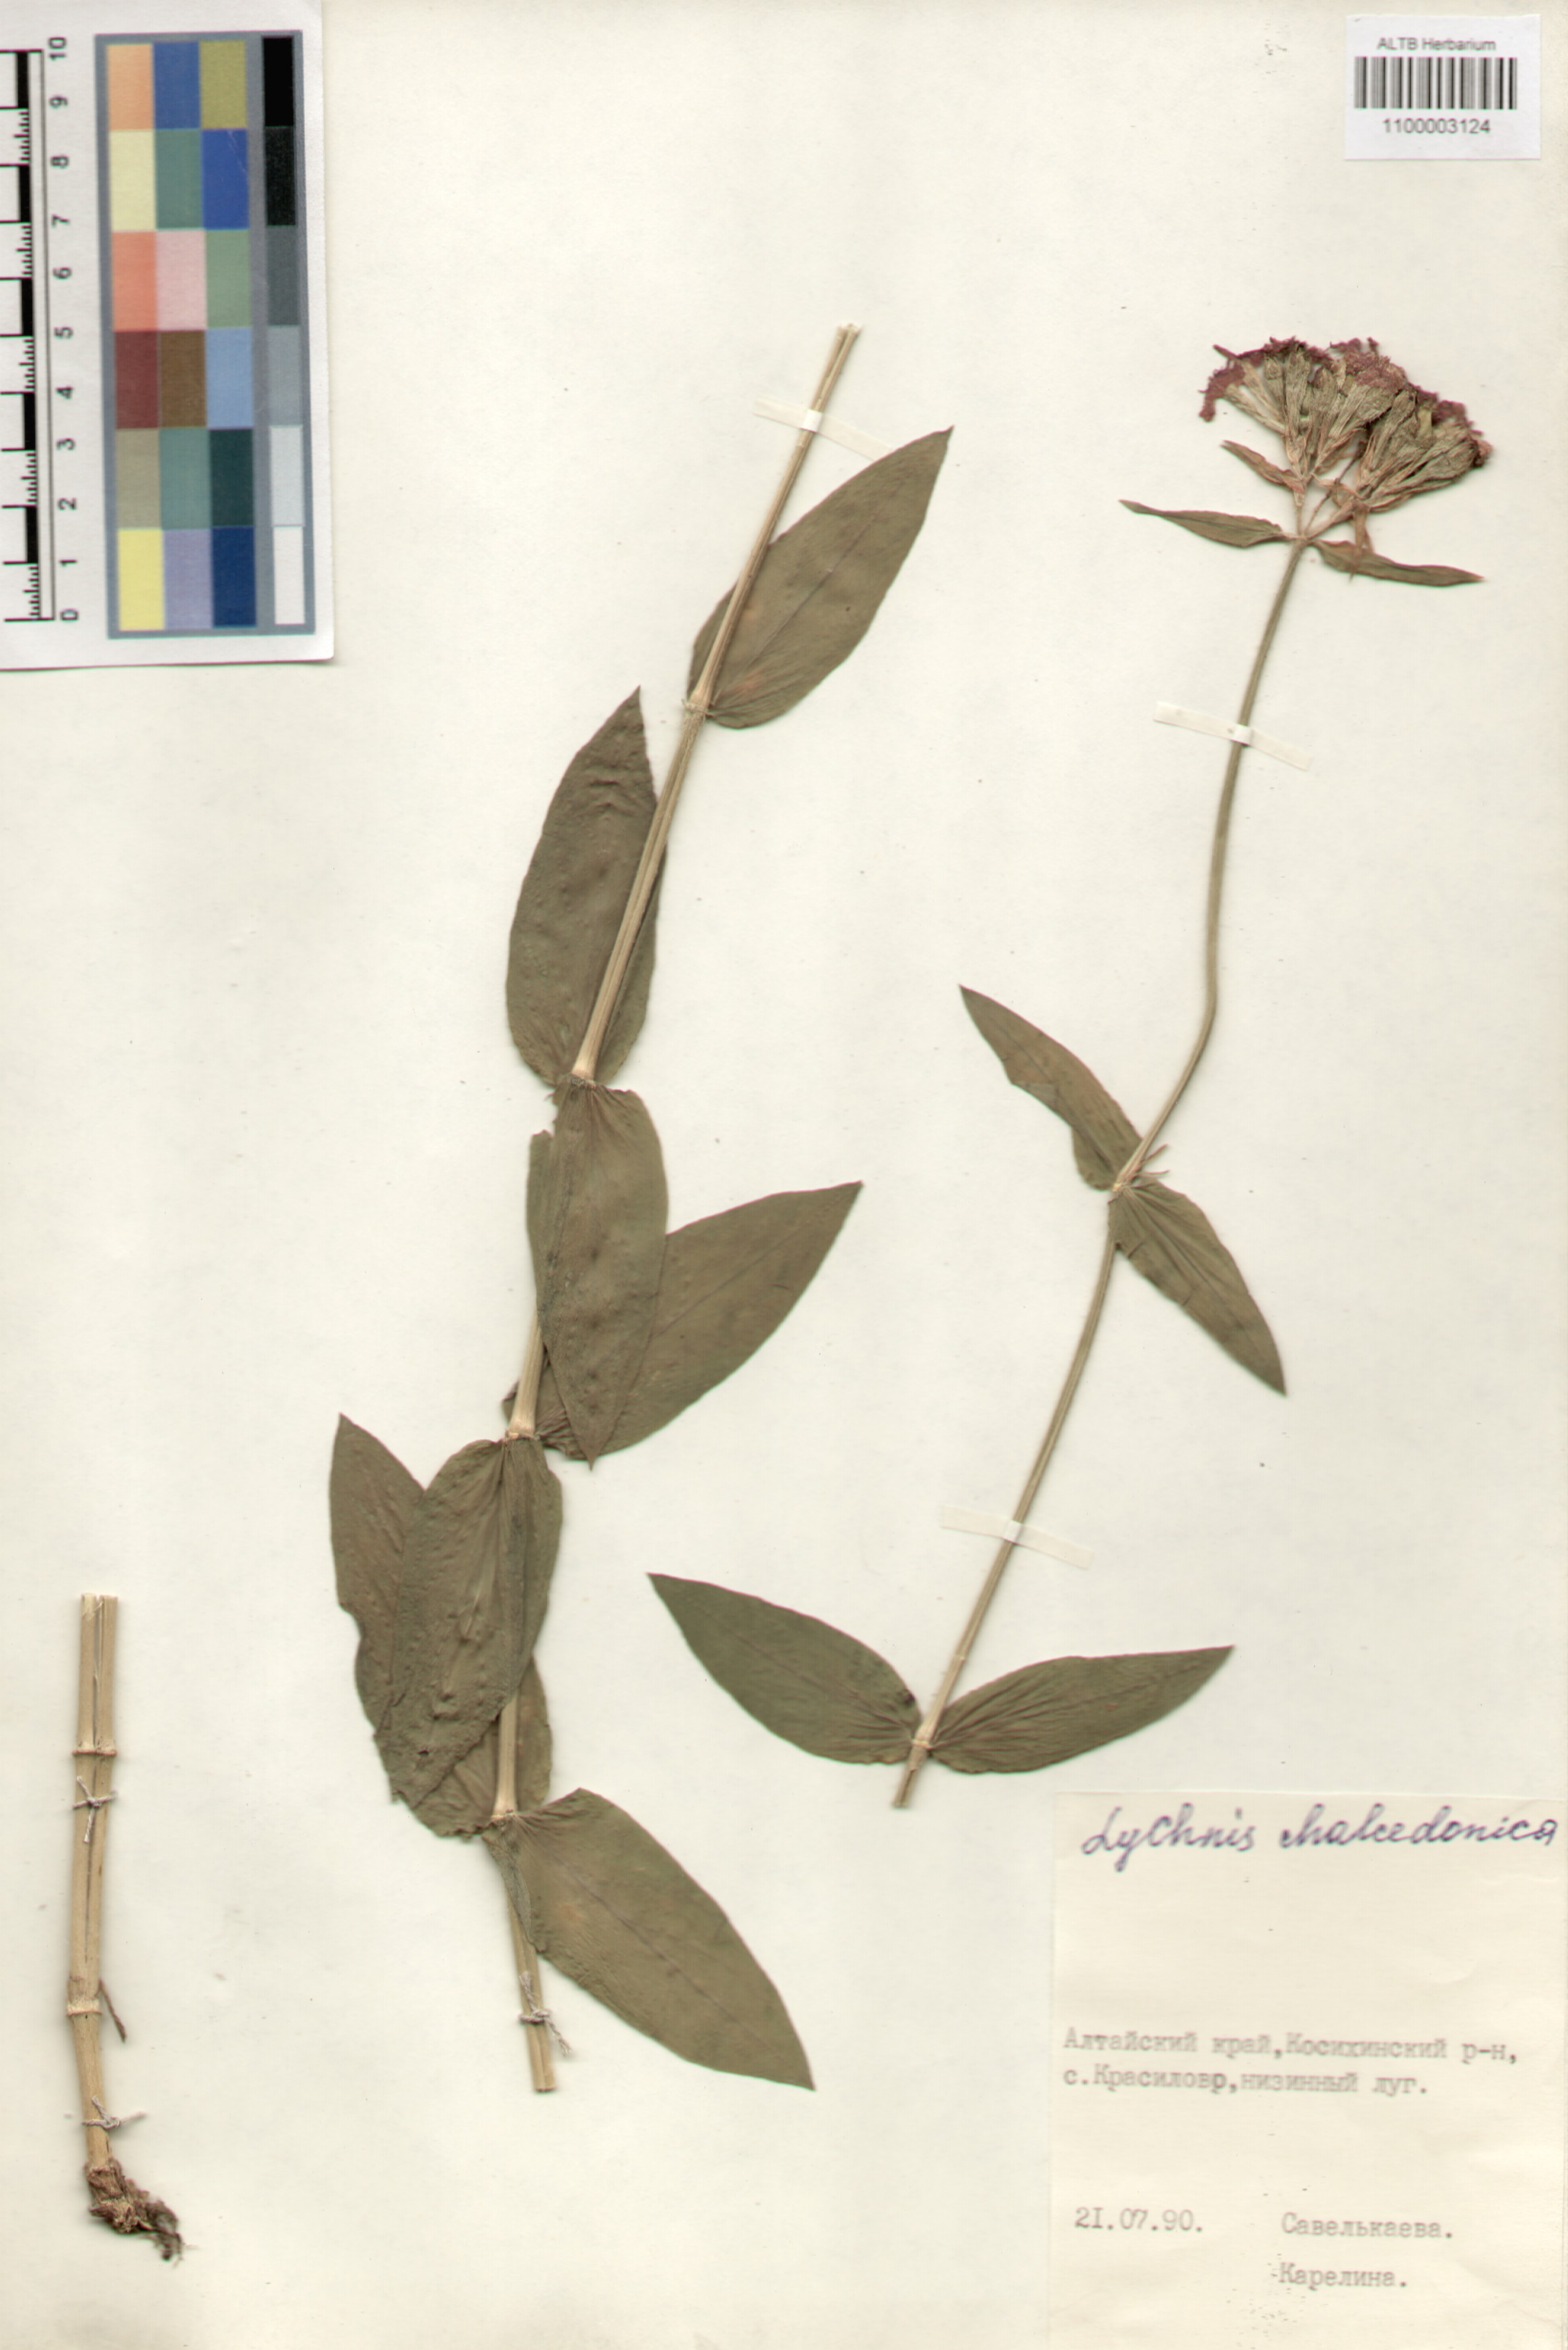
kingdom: Plantae
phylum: Tracheophyta
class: Magnoliopsida
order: Caryophyllales
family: Caryophyllaceae
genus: Silene
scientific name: Silene chalcedonica
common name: Maltese-cross
